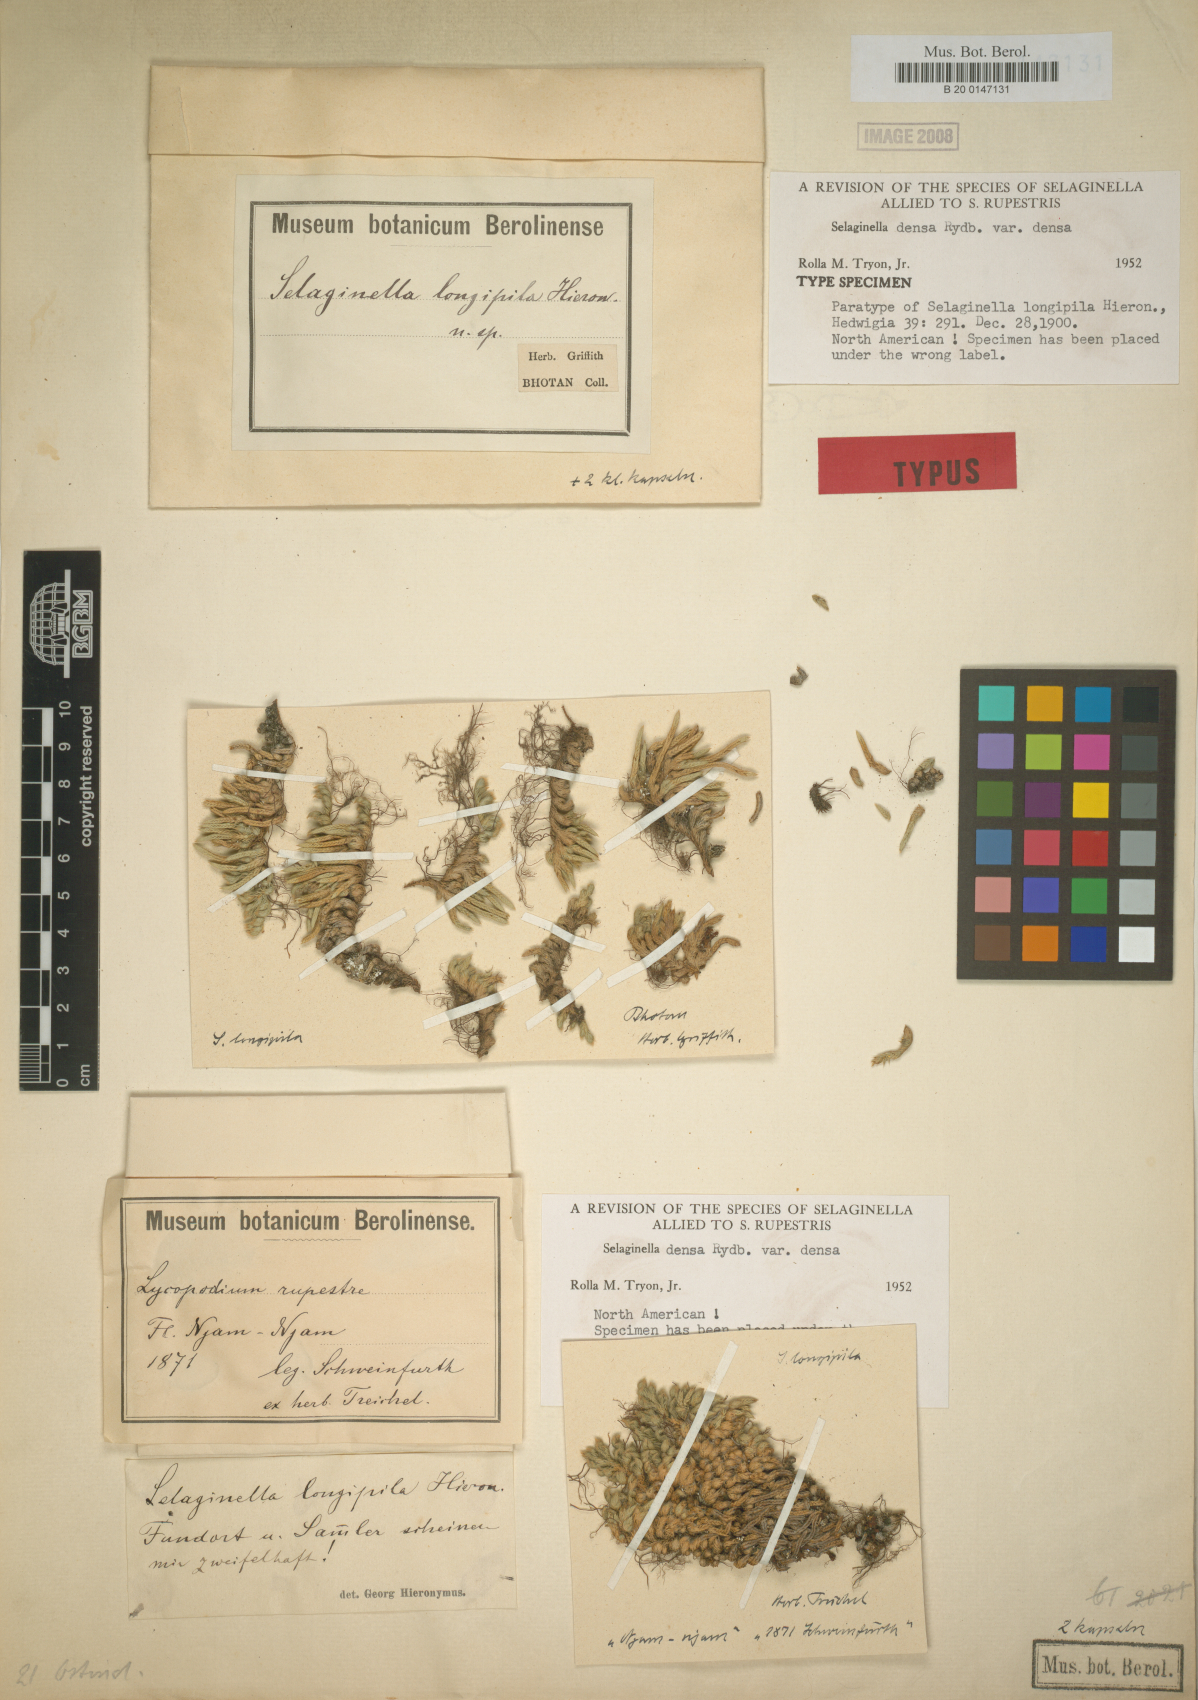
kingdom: Plantae
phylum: Tracheophyta
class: Lycopodiopsida
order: Selaginellales
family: Selaginellaceae
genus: Selaginella
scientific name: Selaginella densa
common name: Mountain spike-moss
